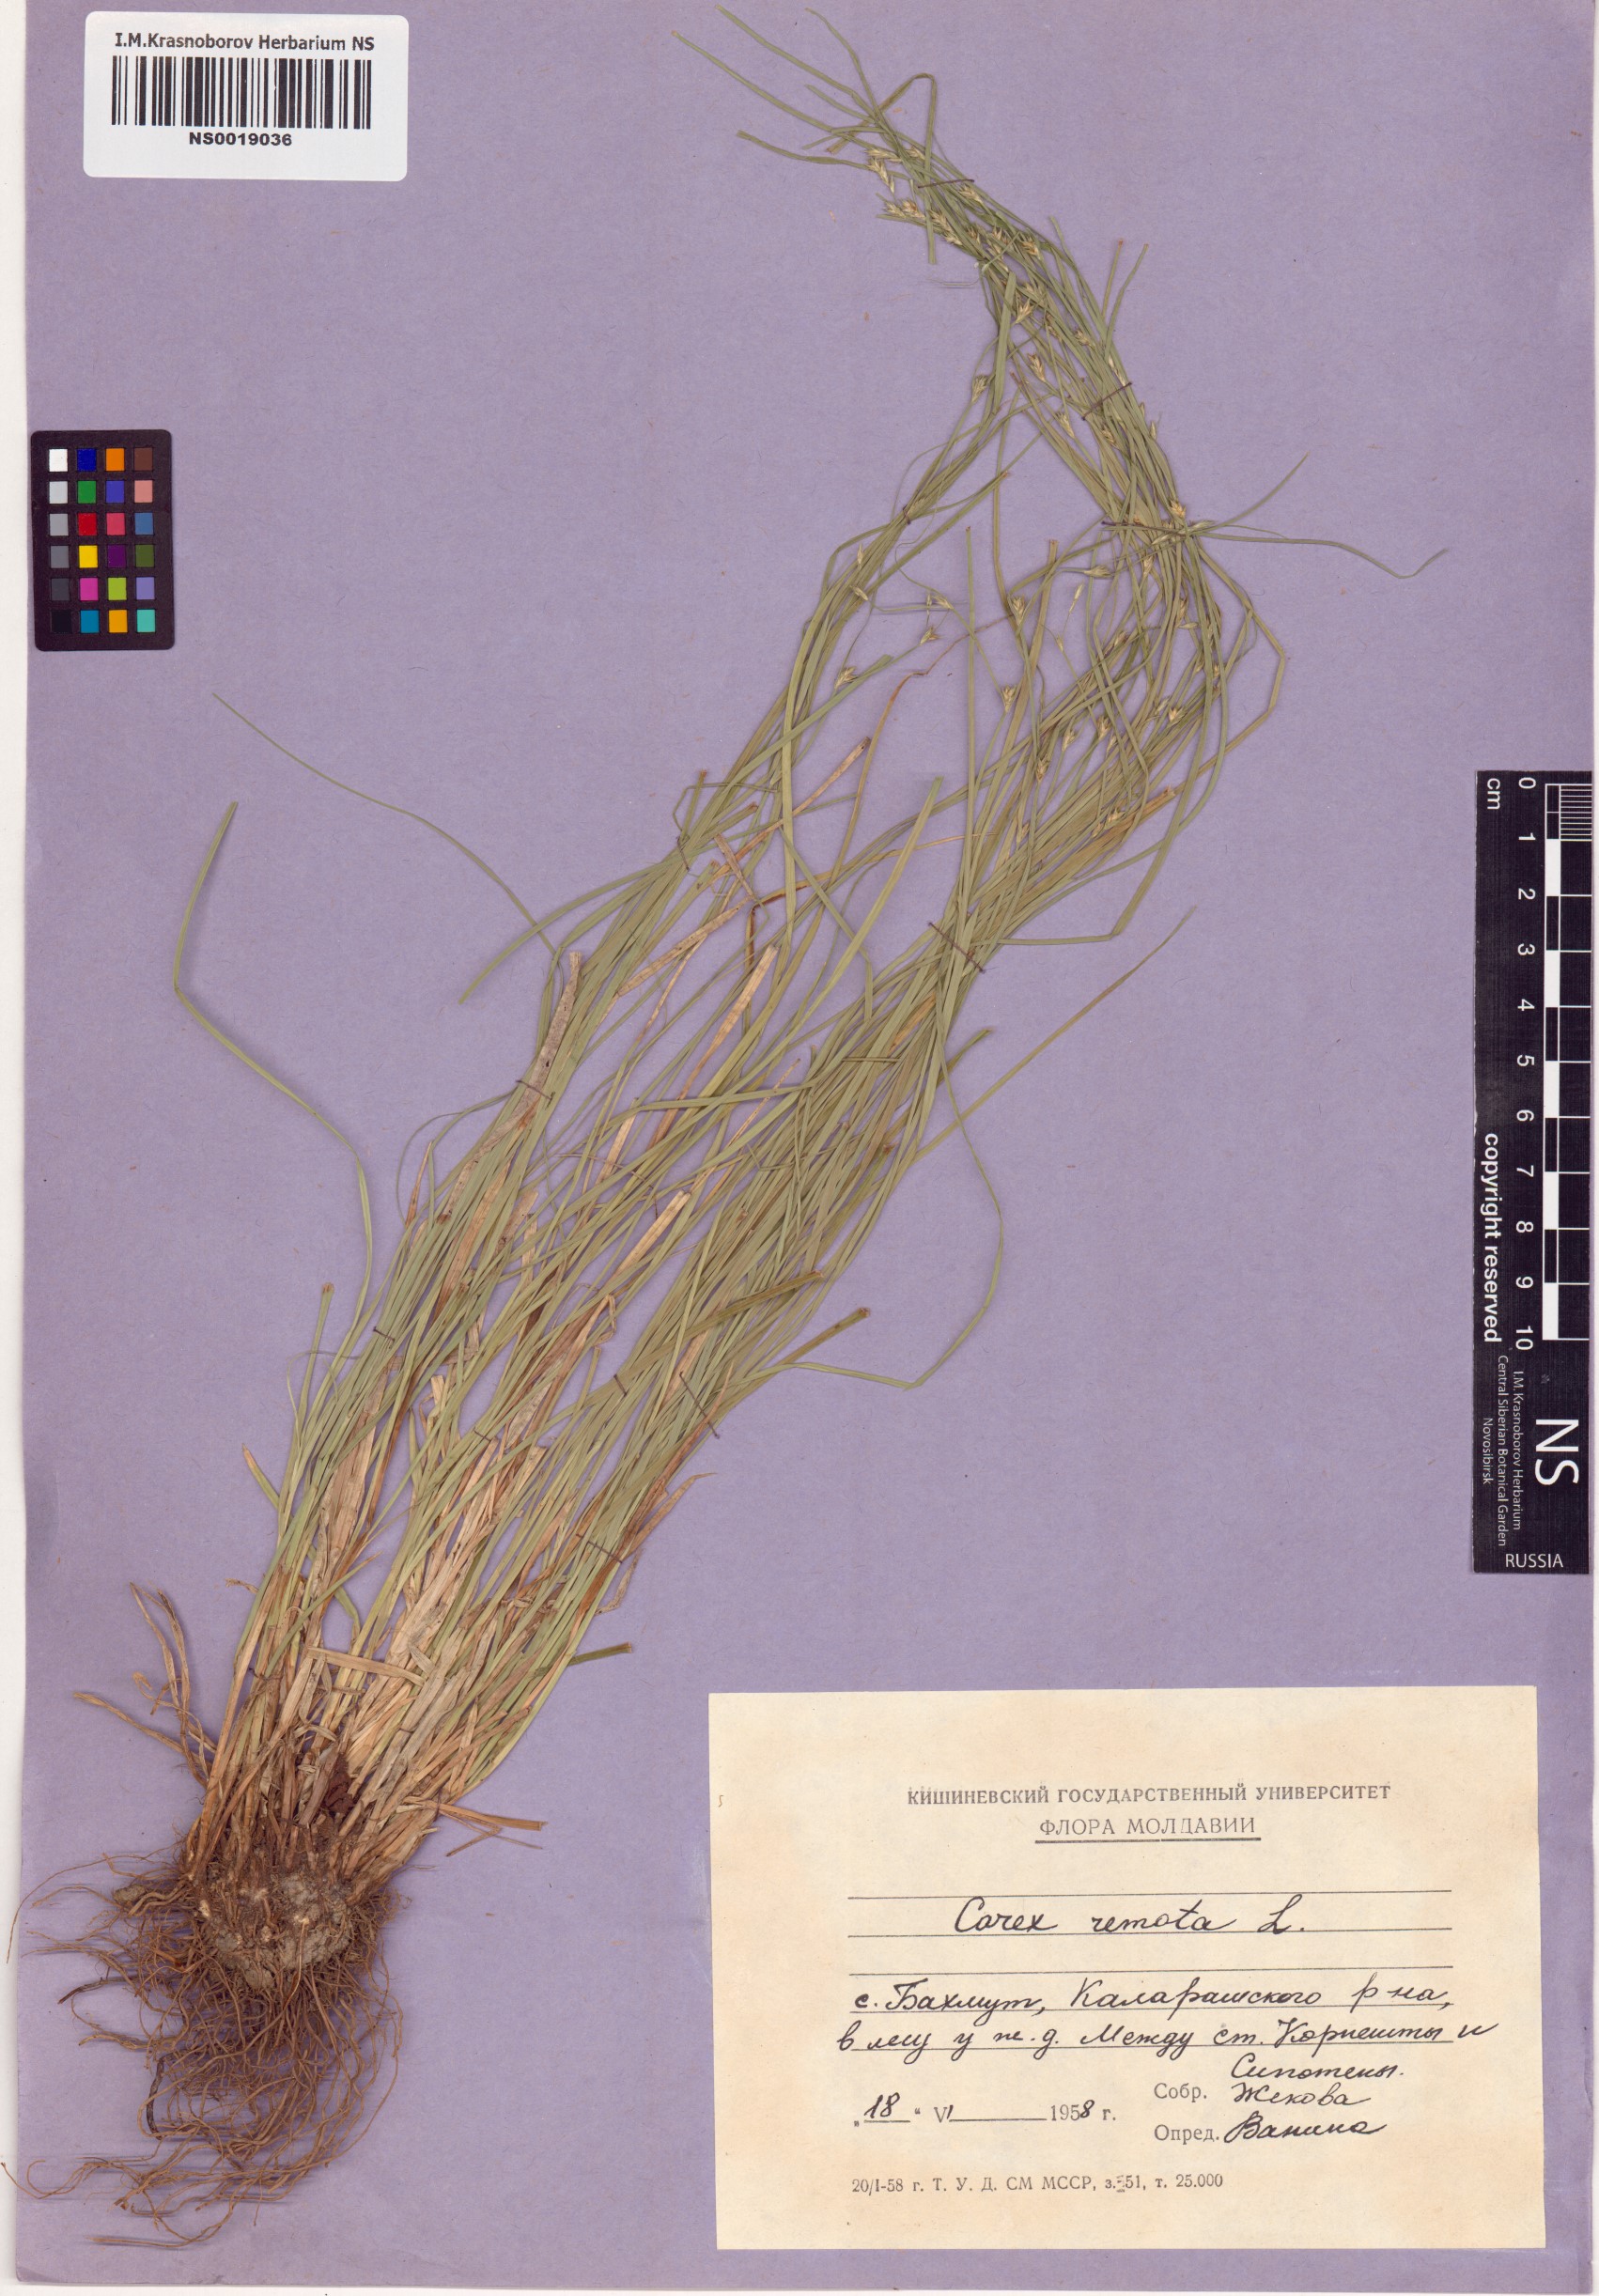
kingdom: Plantae
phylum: Tracheophyta
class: Liliopsida
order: Poales
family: Cyperaceae
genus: Carex
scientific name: Carex remota
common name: Remote sedge
